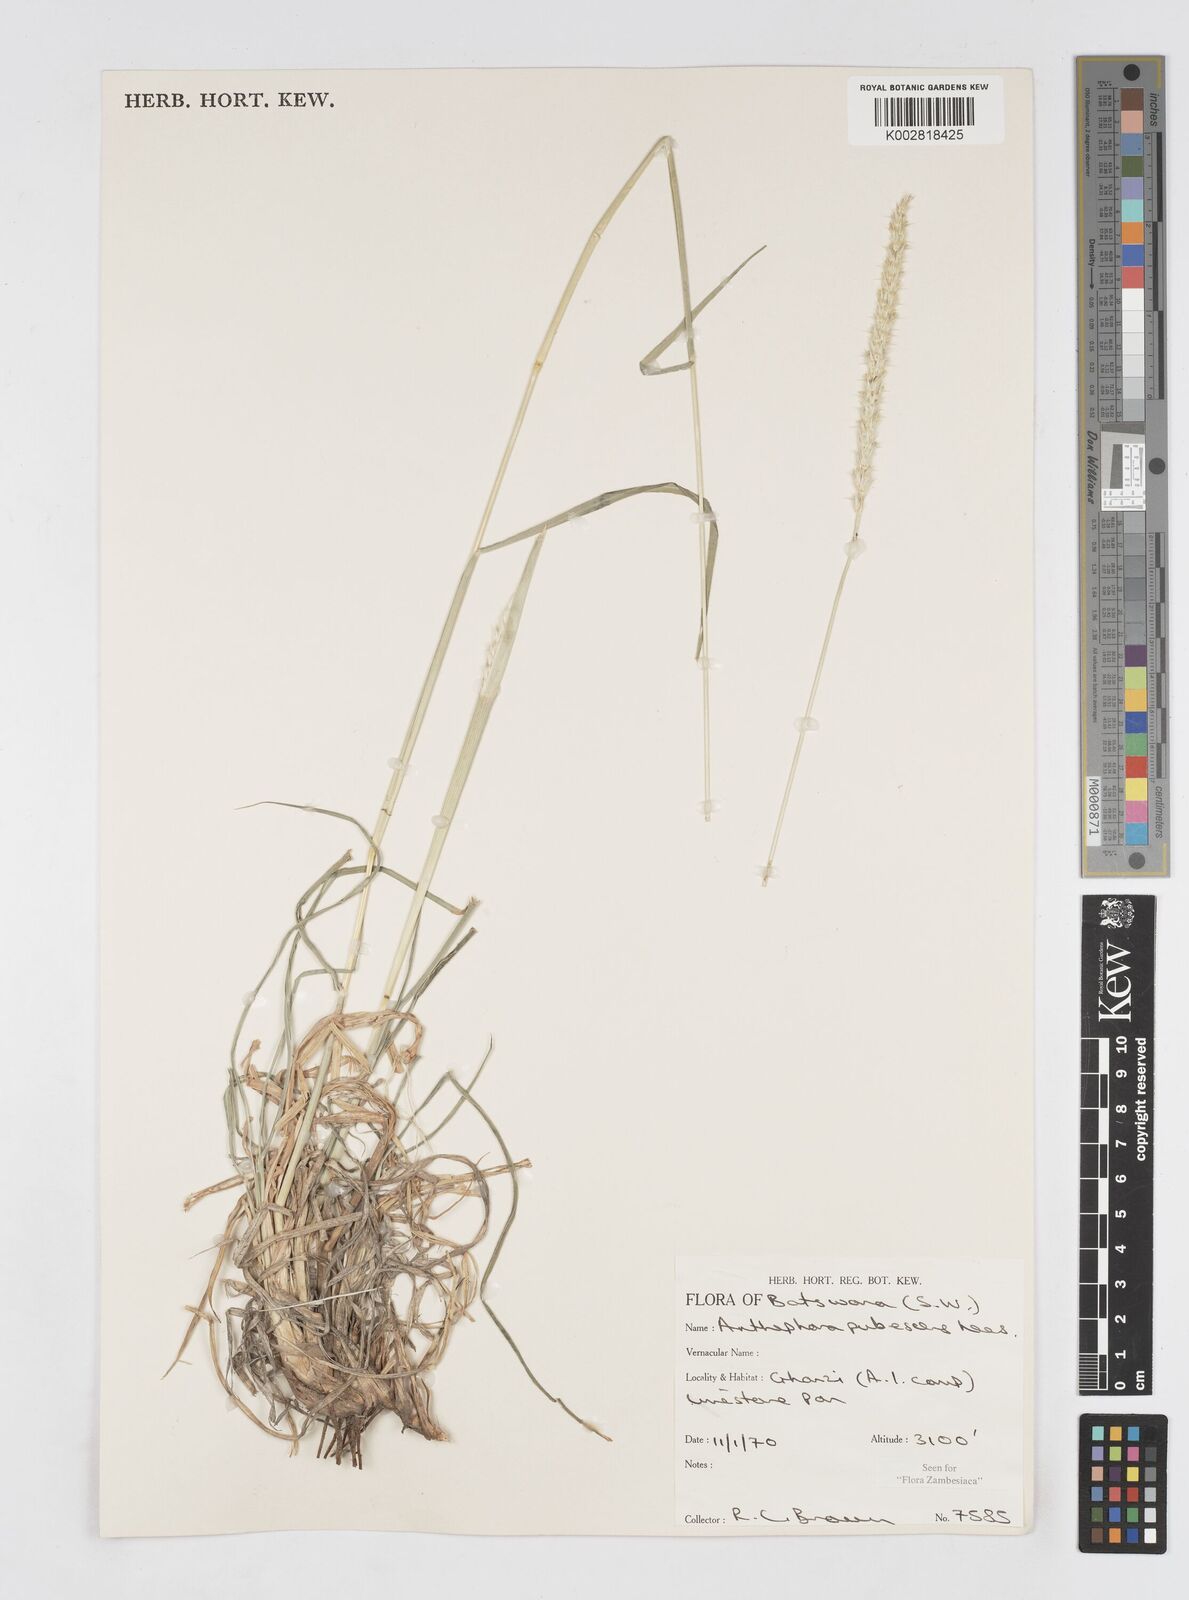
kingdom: Plantae
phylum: Tracheophyta
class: Liliopsida
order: Poales
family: Poaceae
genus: Anthephora
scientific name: Anthephora pubescens
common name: Wool grass
